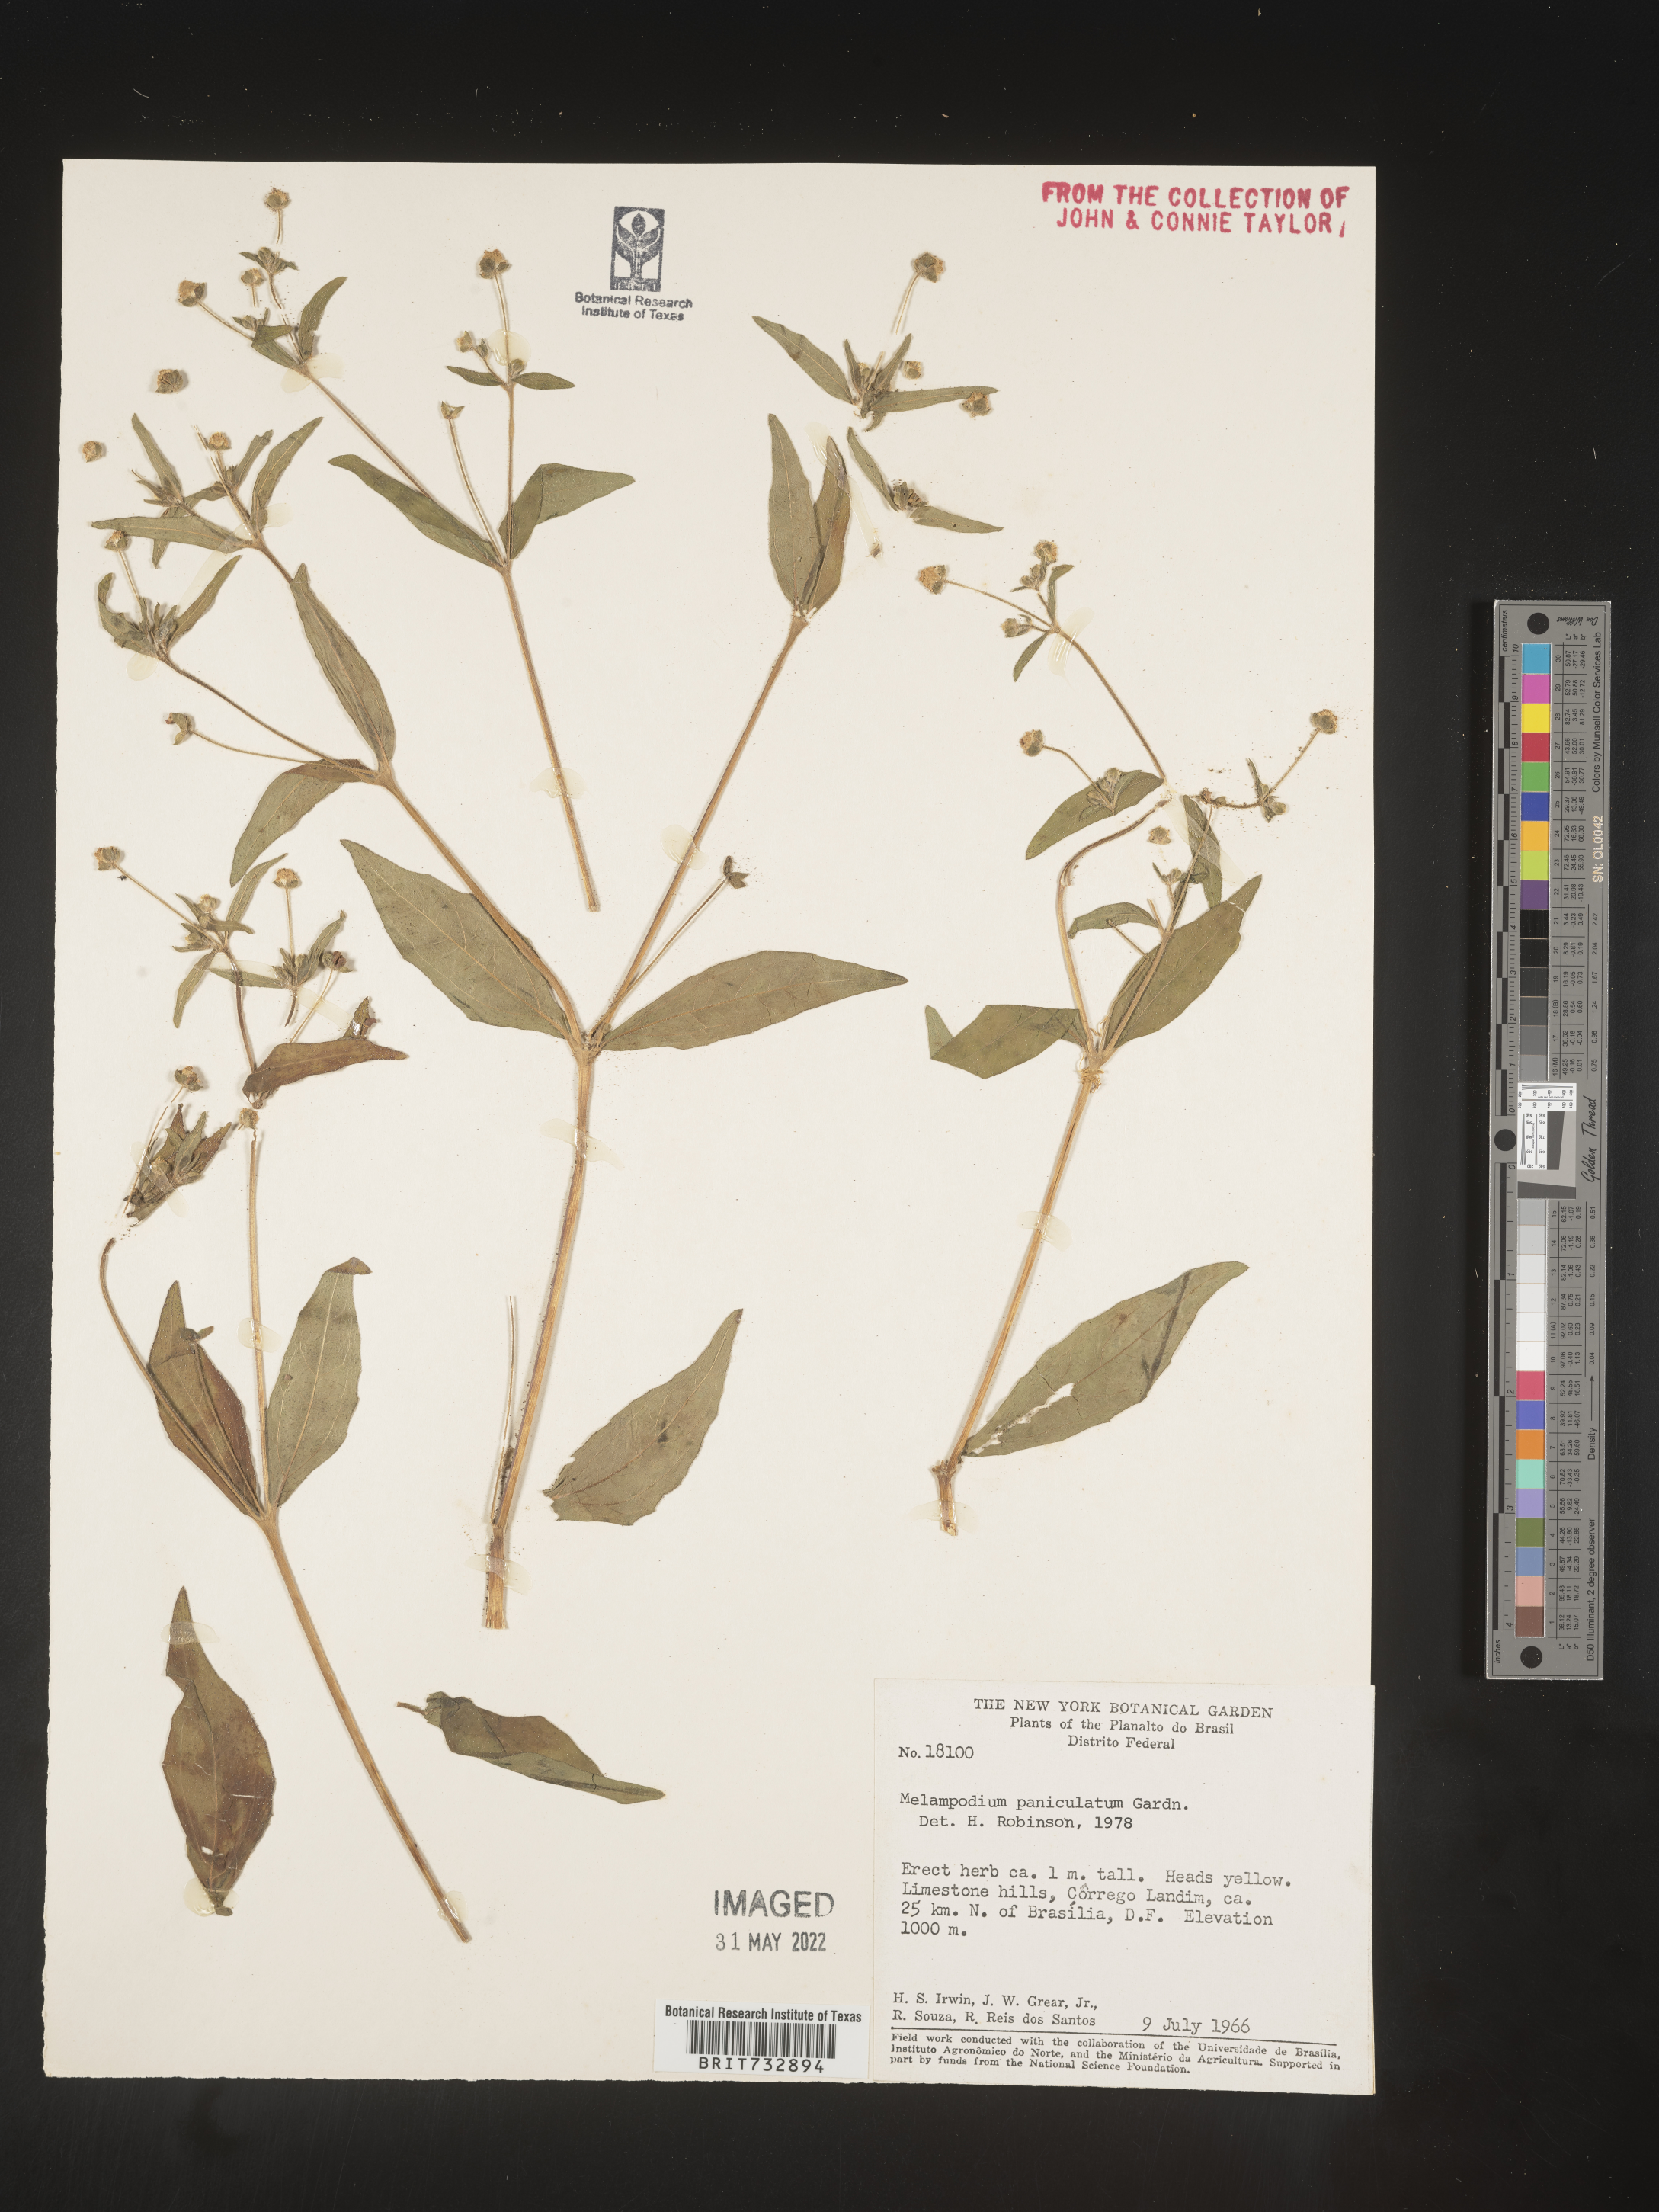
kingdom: Plantae
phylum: Tracheophyta
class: Magnoliopsida
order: Asterales
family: Asteraceae
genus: Melampodium
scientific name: Melampodium paniculatum
